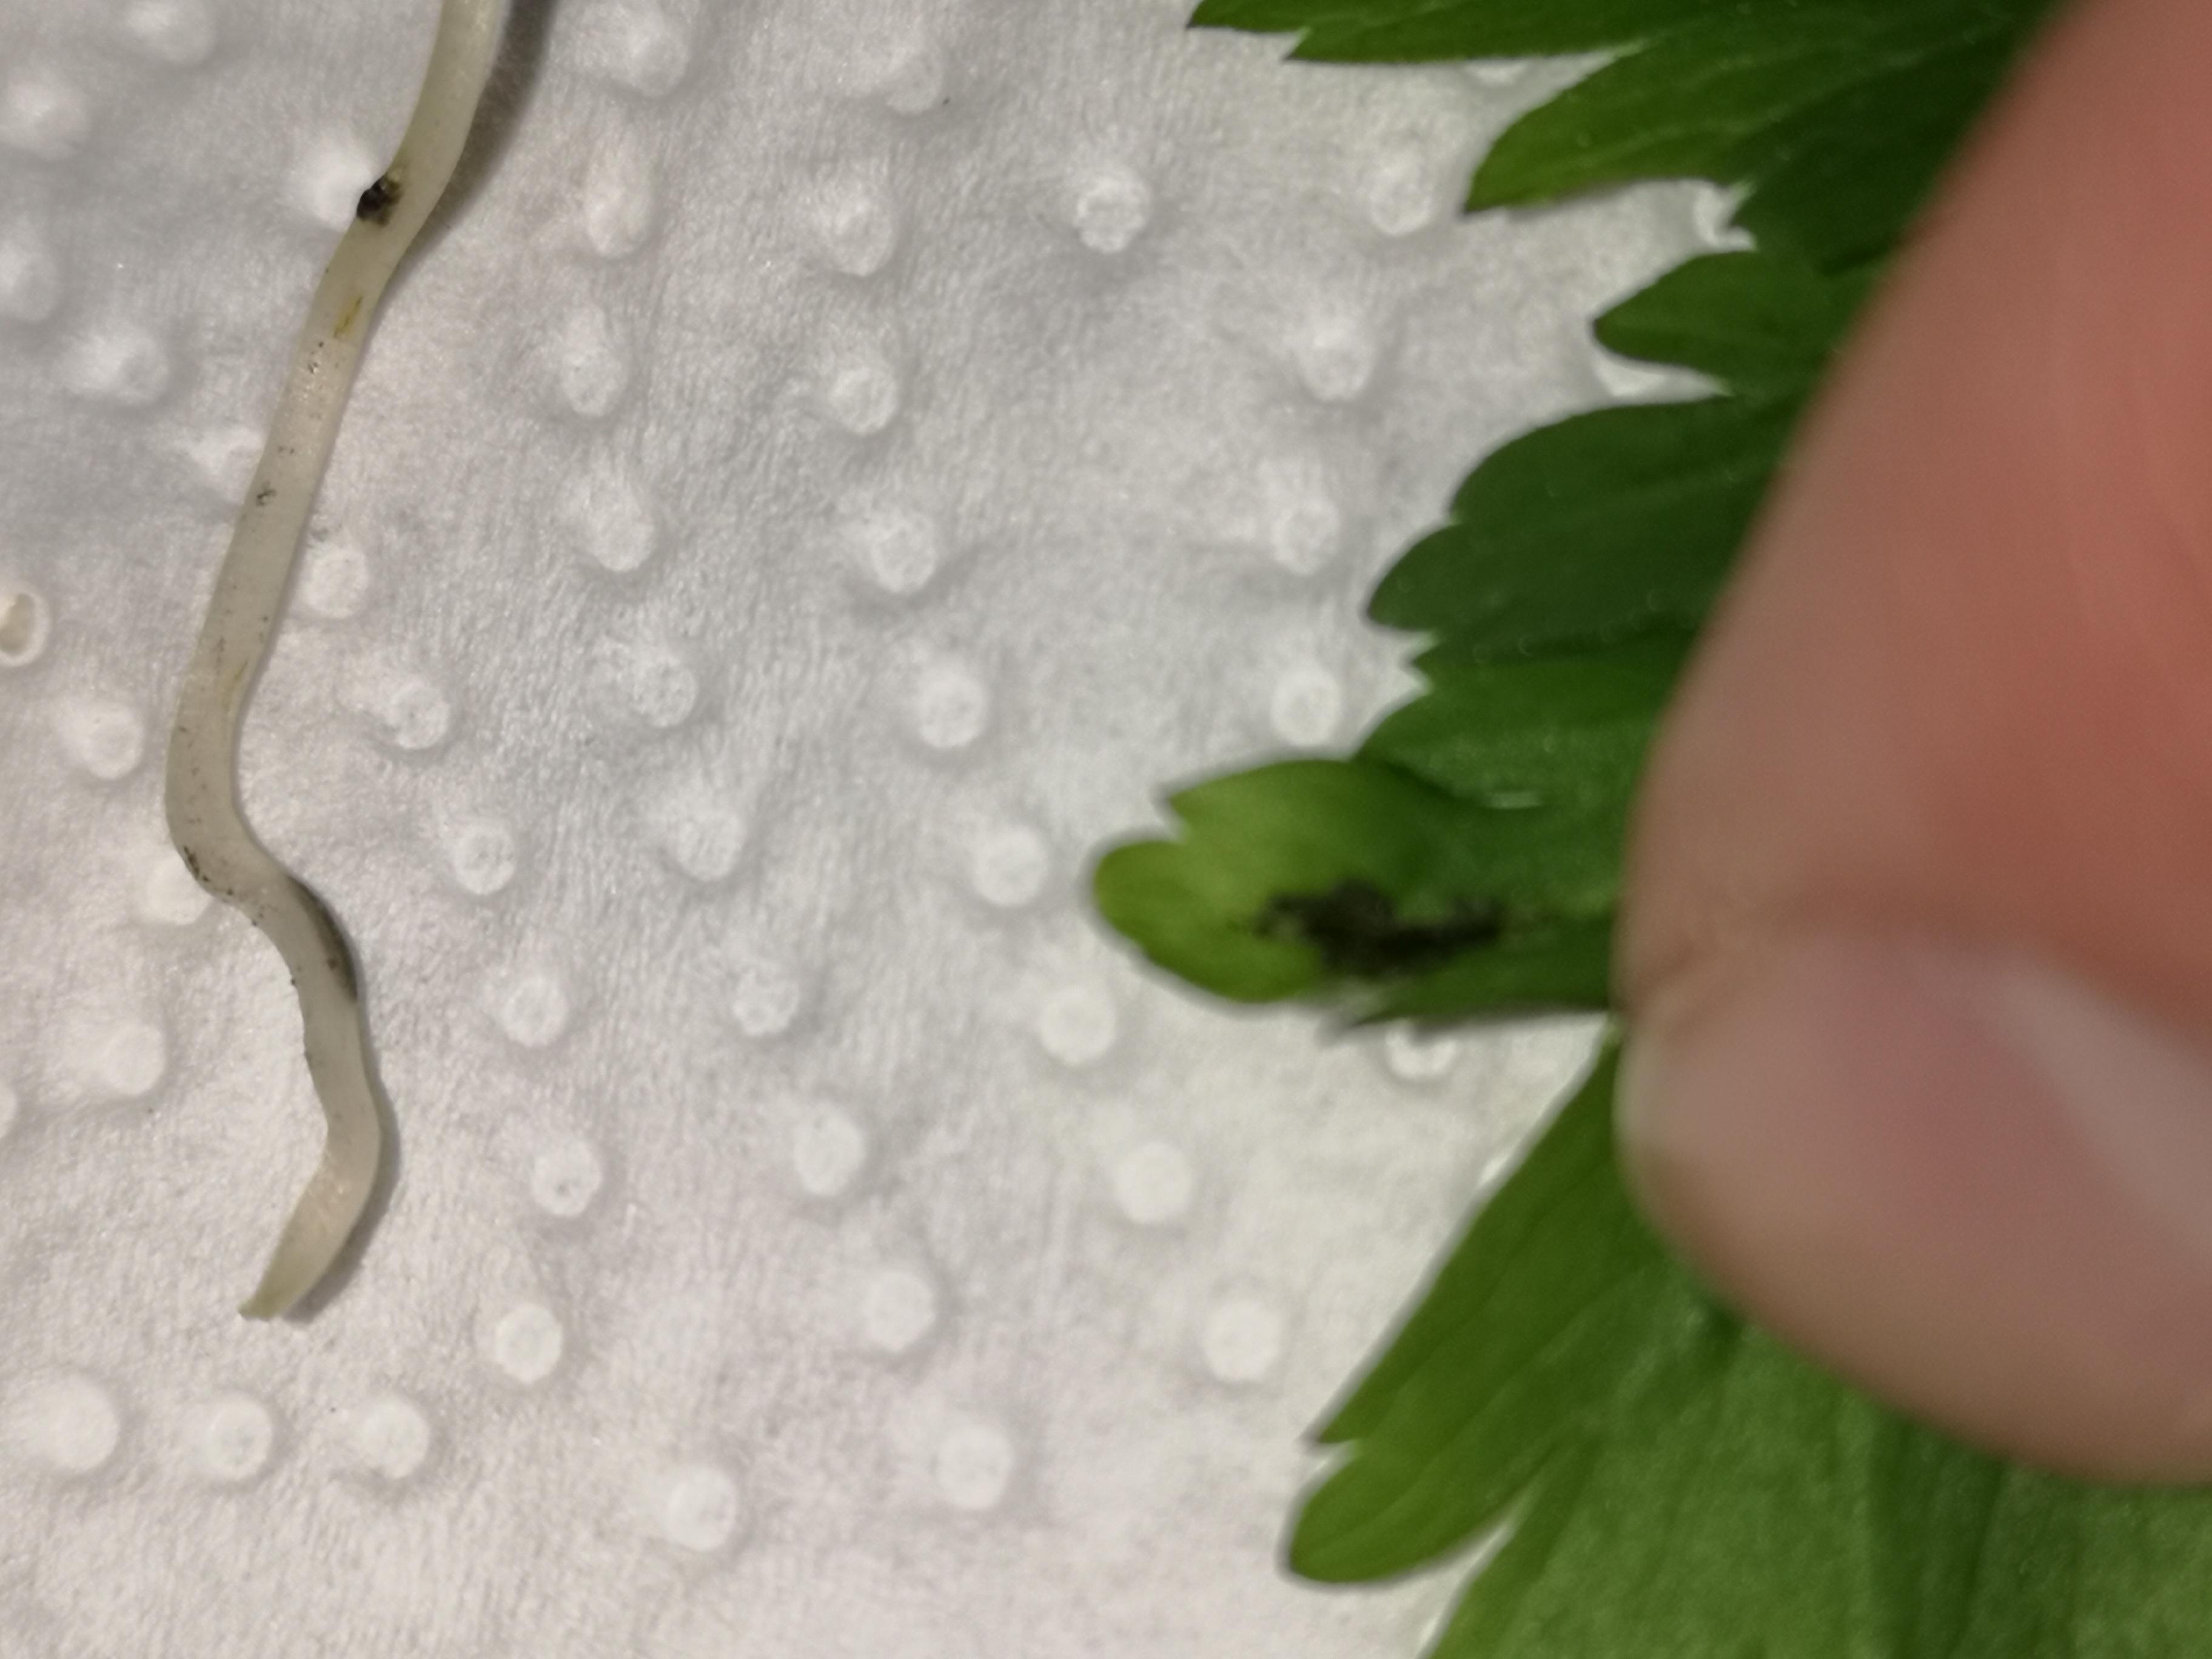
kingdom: Fungi
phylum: Basidiomycota
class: Ustilaginomycetes
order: Urocystidales
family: Urocystidaceae
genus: Urocystis
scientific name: Urocystis anemones
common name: anemone-brand
